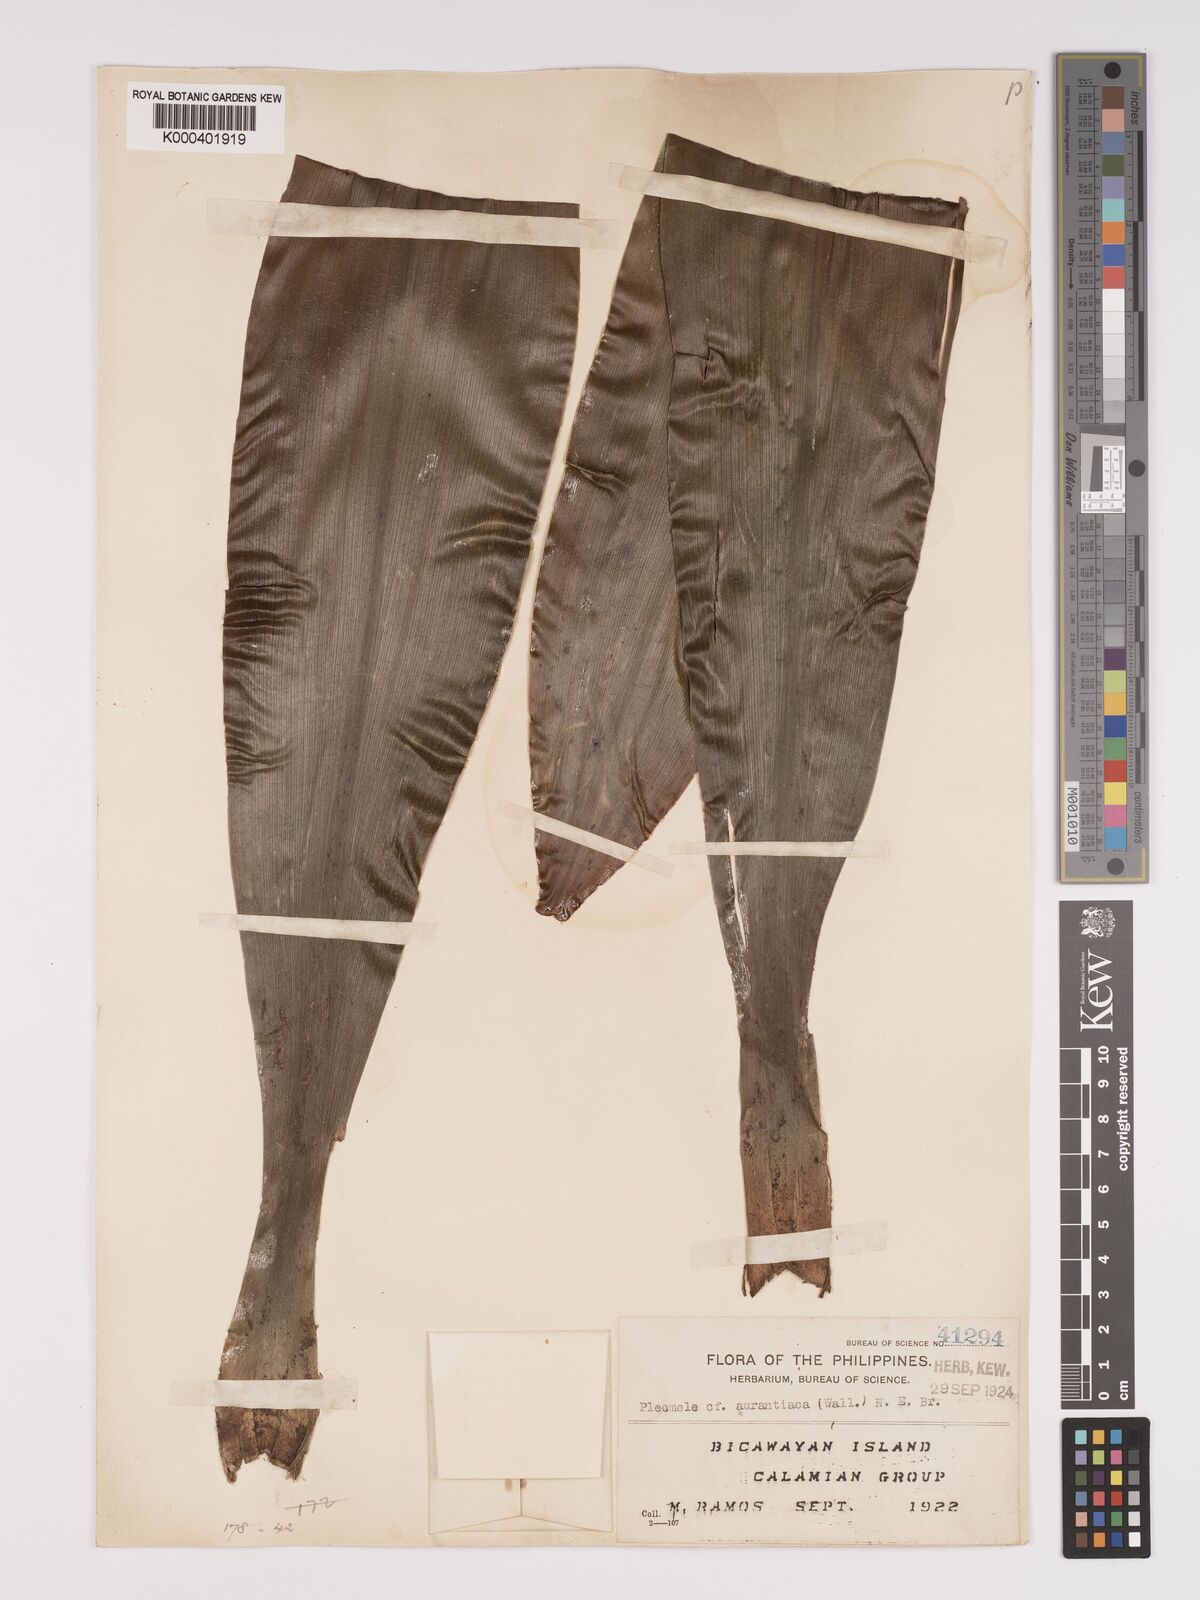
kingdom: Plantae
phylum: Tracheophyta
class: Liliopsida
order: Asparagales
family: Asparagaceae
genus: Dracaena
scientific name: Dracaena
